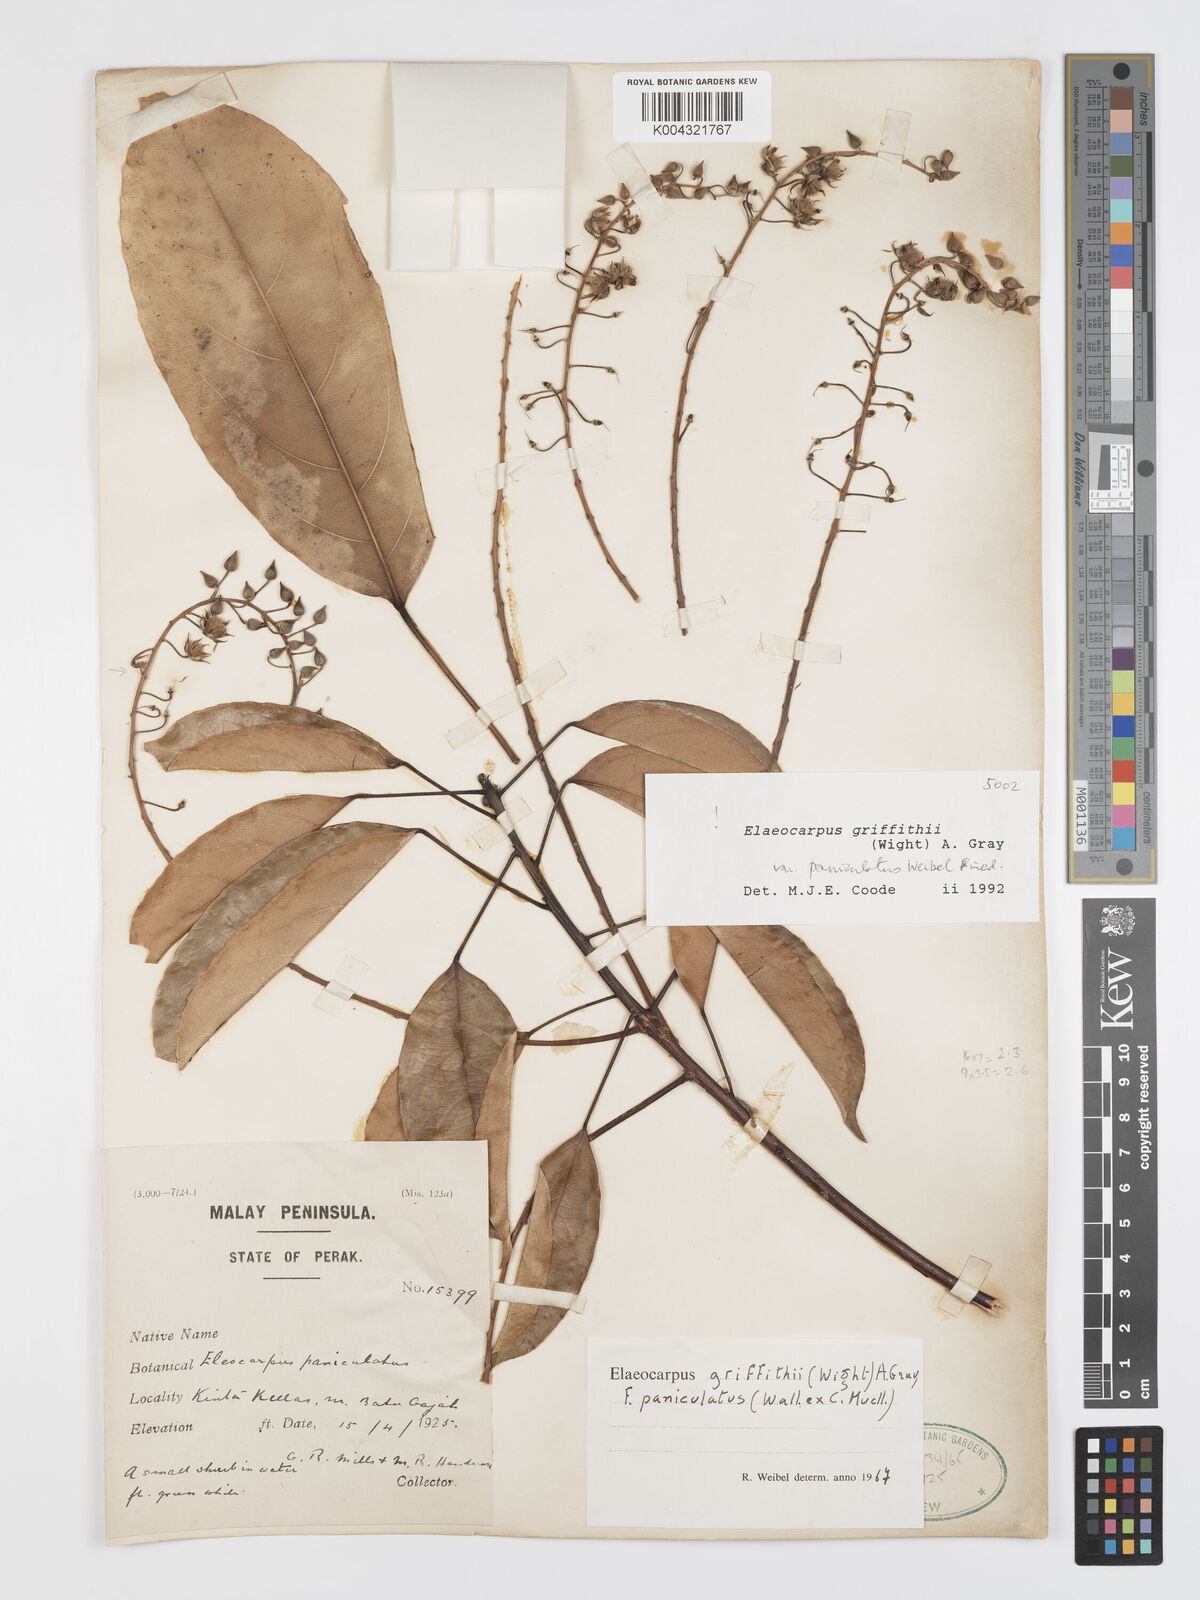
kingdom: Plantae
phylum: Tracheophyta
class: Magnoliopsida
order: Oxalidales
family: Elaeocarpaceae
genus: Elaeocarpus
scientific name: Elaeocarpus griffithii
